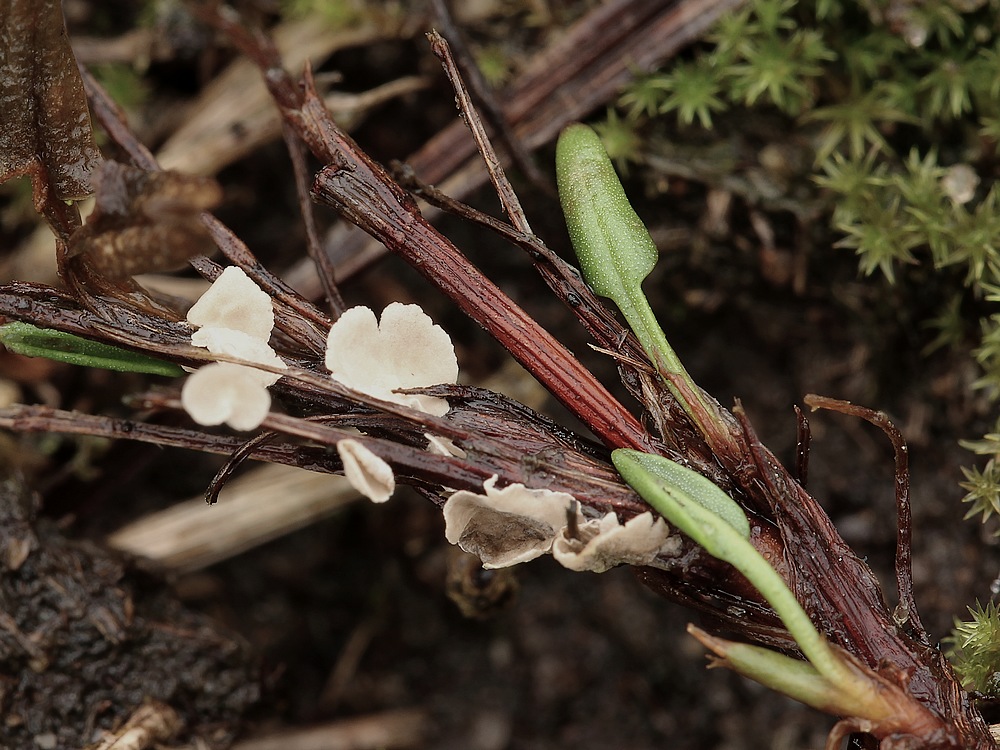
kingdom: Fungi
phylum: Basidiomycota
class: Agaricomycetes
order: Agaricales
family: Hygrophoraceae
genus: Arrhenia
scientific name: Arrhenia retiruga
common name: lille fontænehat
